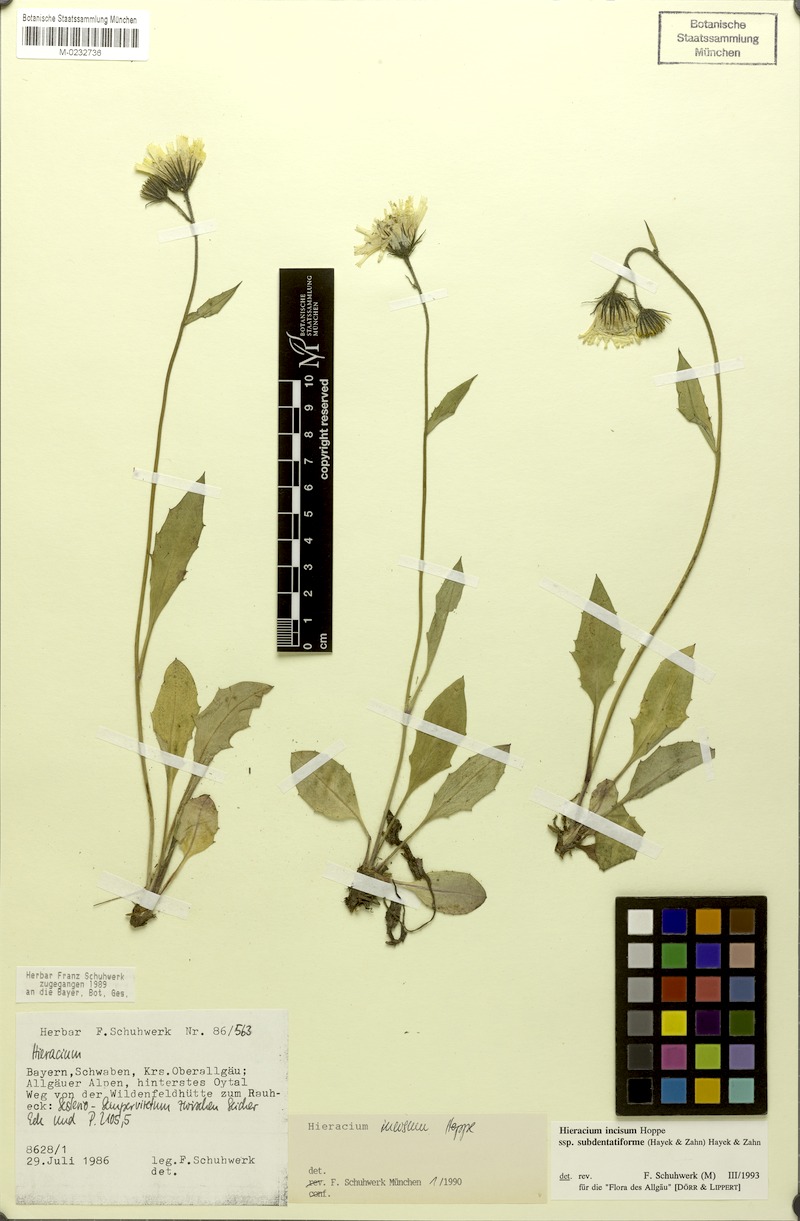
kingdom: Plantae
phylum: Tracheophyta
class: Magnoliopsida
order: Asterales
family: Asteraceae
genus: Hieracium
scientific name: Hieracium incisum
